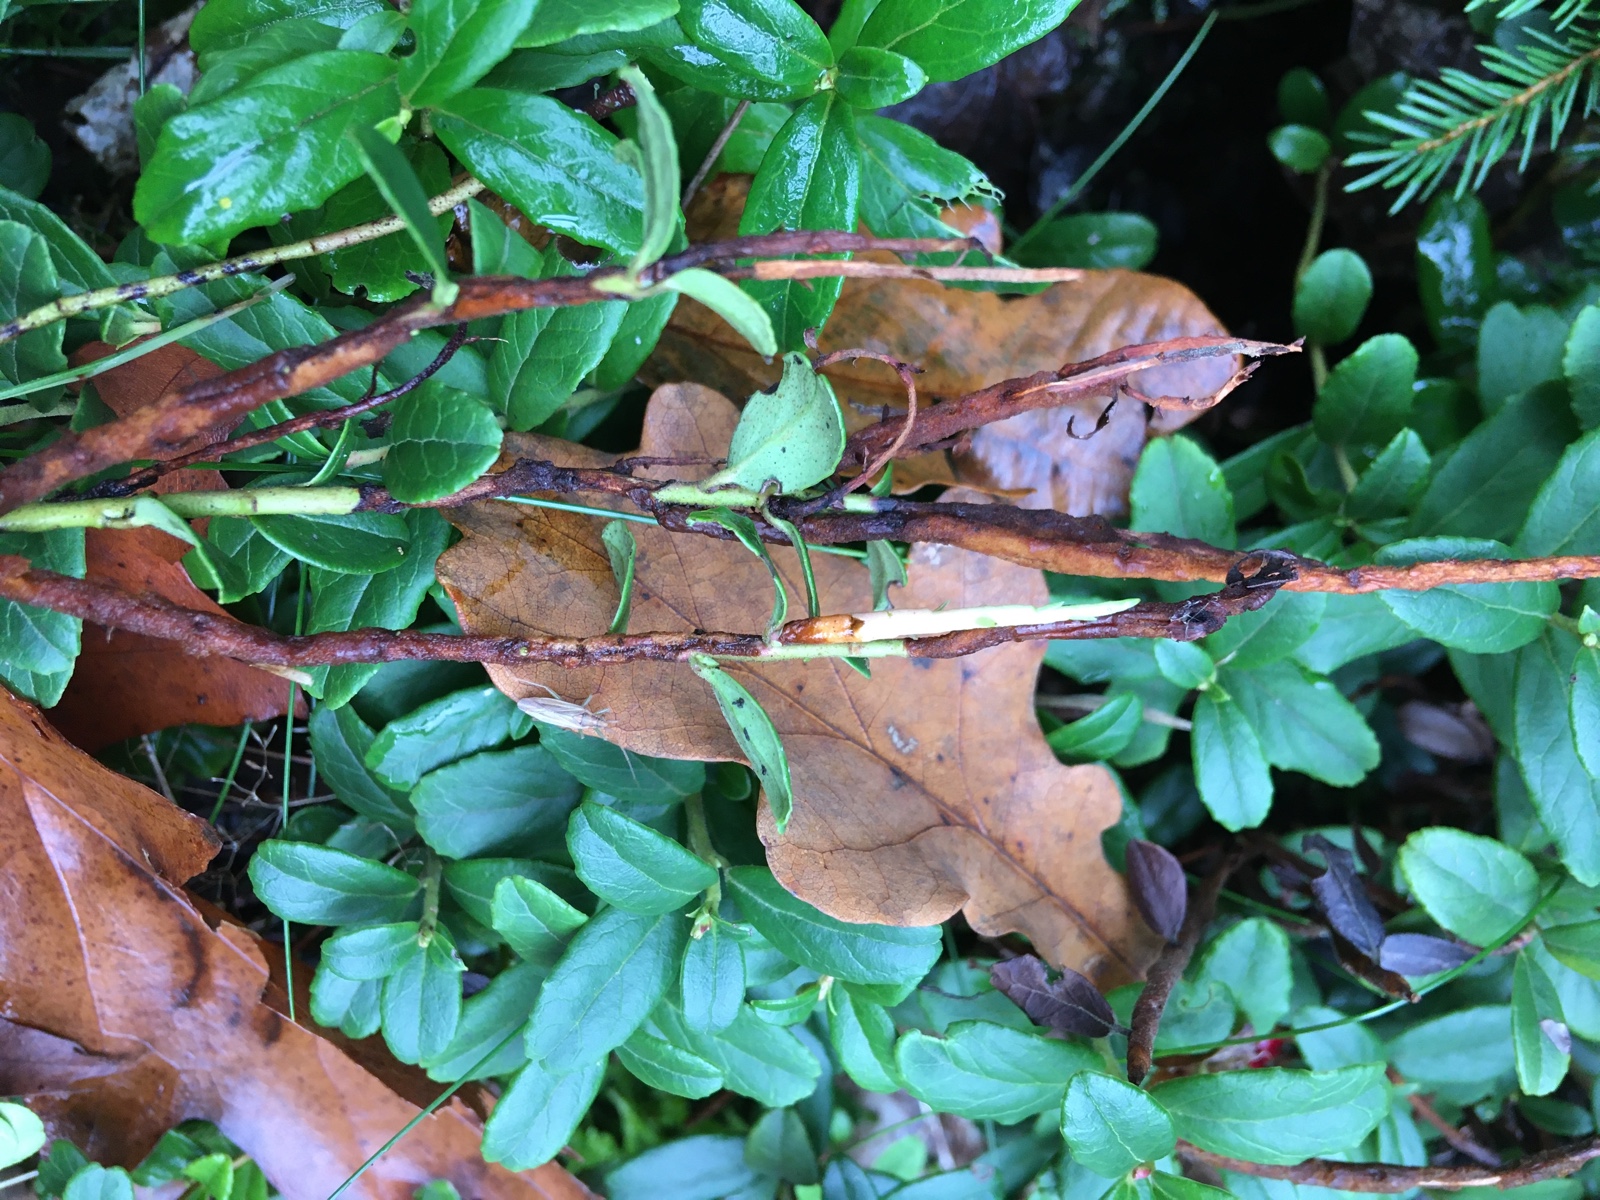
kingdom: Fungi
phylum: Basidiomycota
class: Pucciniomycetes
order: Pucciniales
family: Pucciniastraceae
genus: Calyptospora
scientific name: Calyptospora columnaris
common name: Huckleberry broom rust fungus
